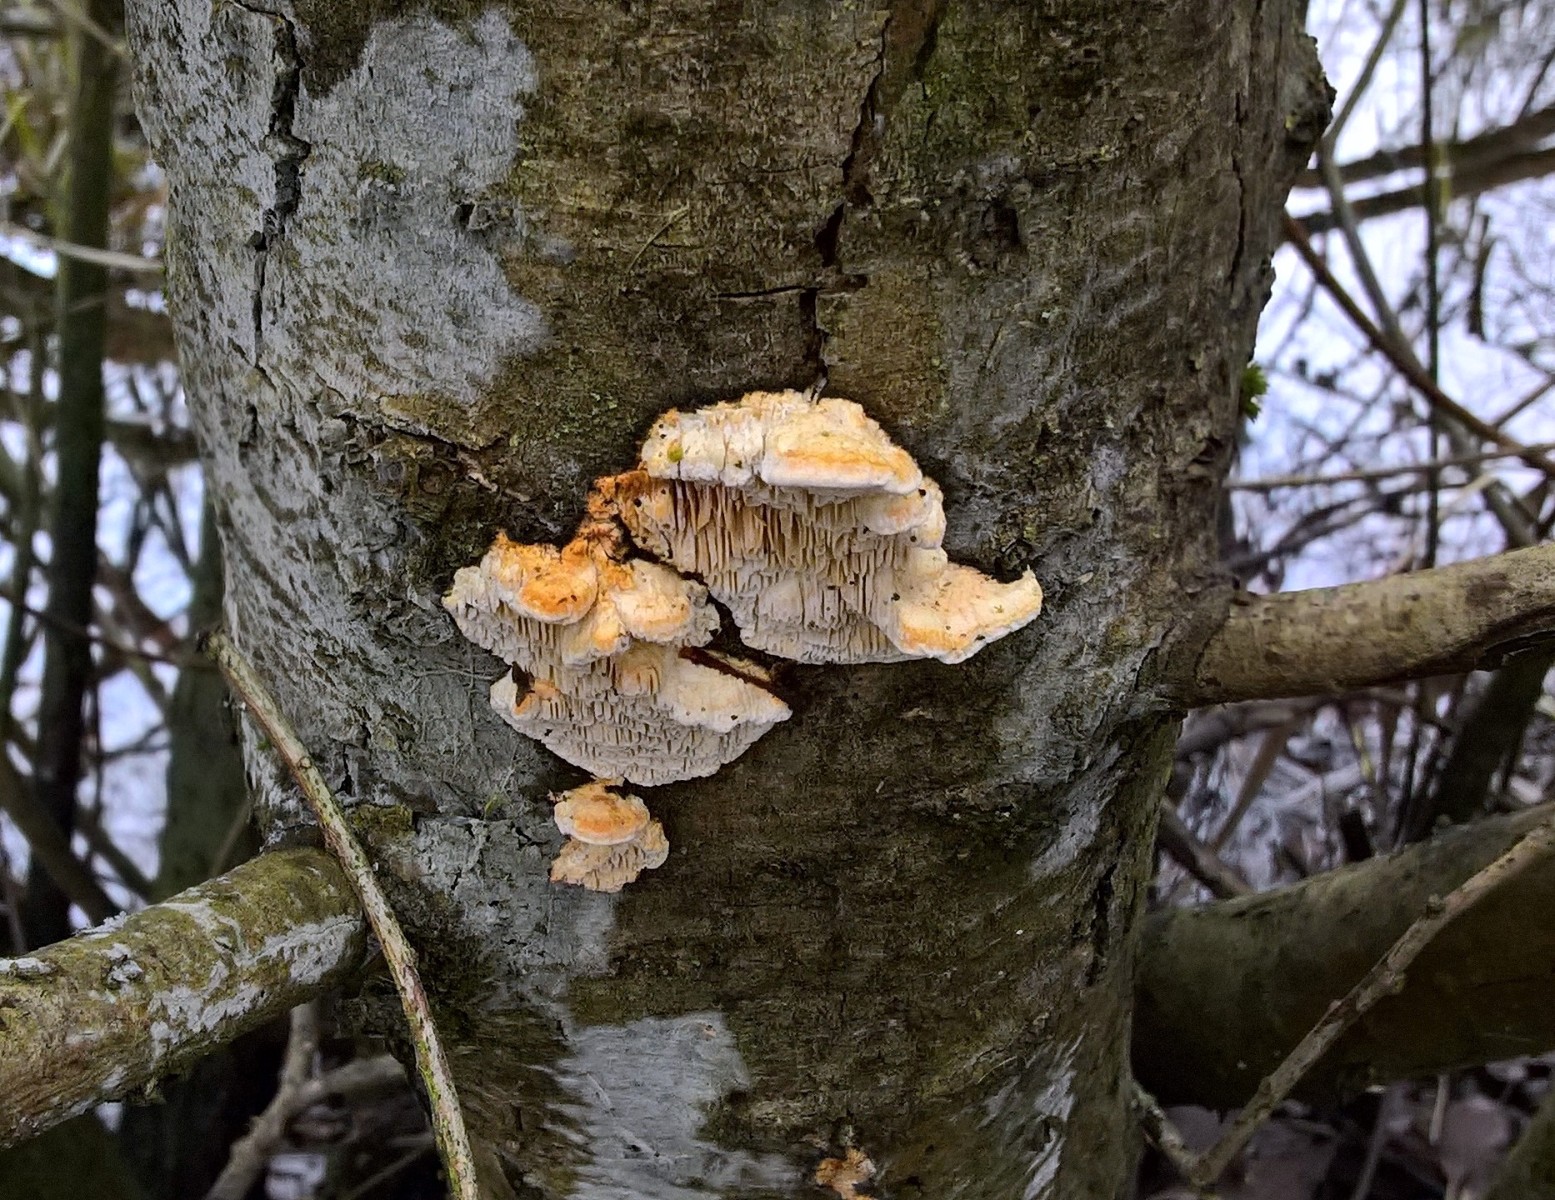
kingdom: Fungi
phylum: Basidiomycota
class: Agaricomycetes
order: Polyporales
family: Fomitopsidaceae
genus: Fomitopsis
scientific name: Fomitopsis
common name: pile-skiveporesvamp
